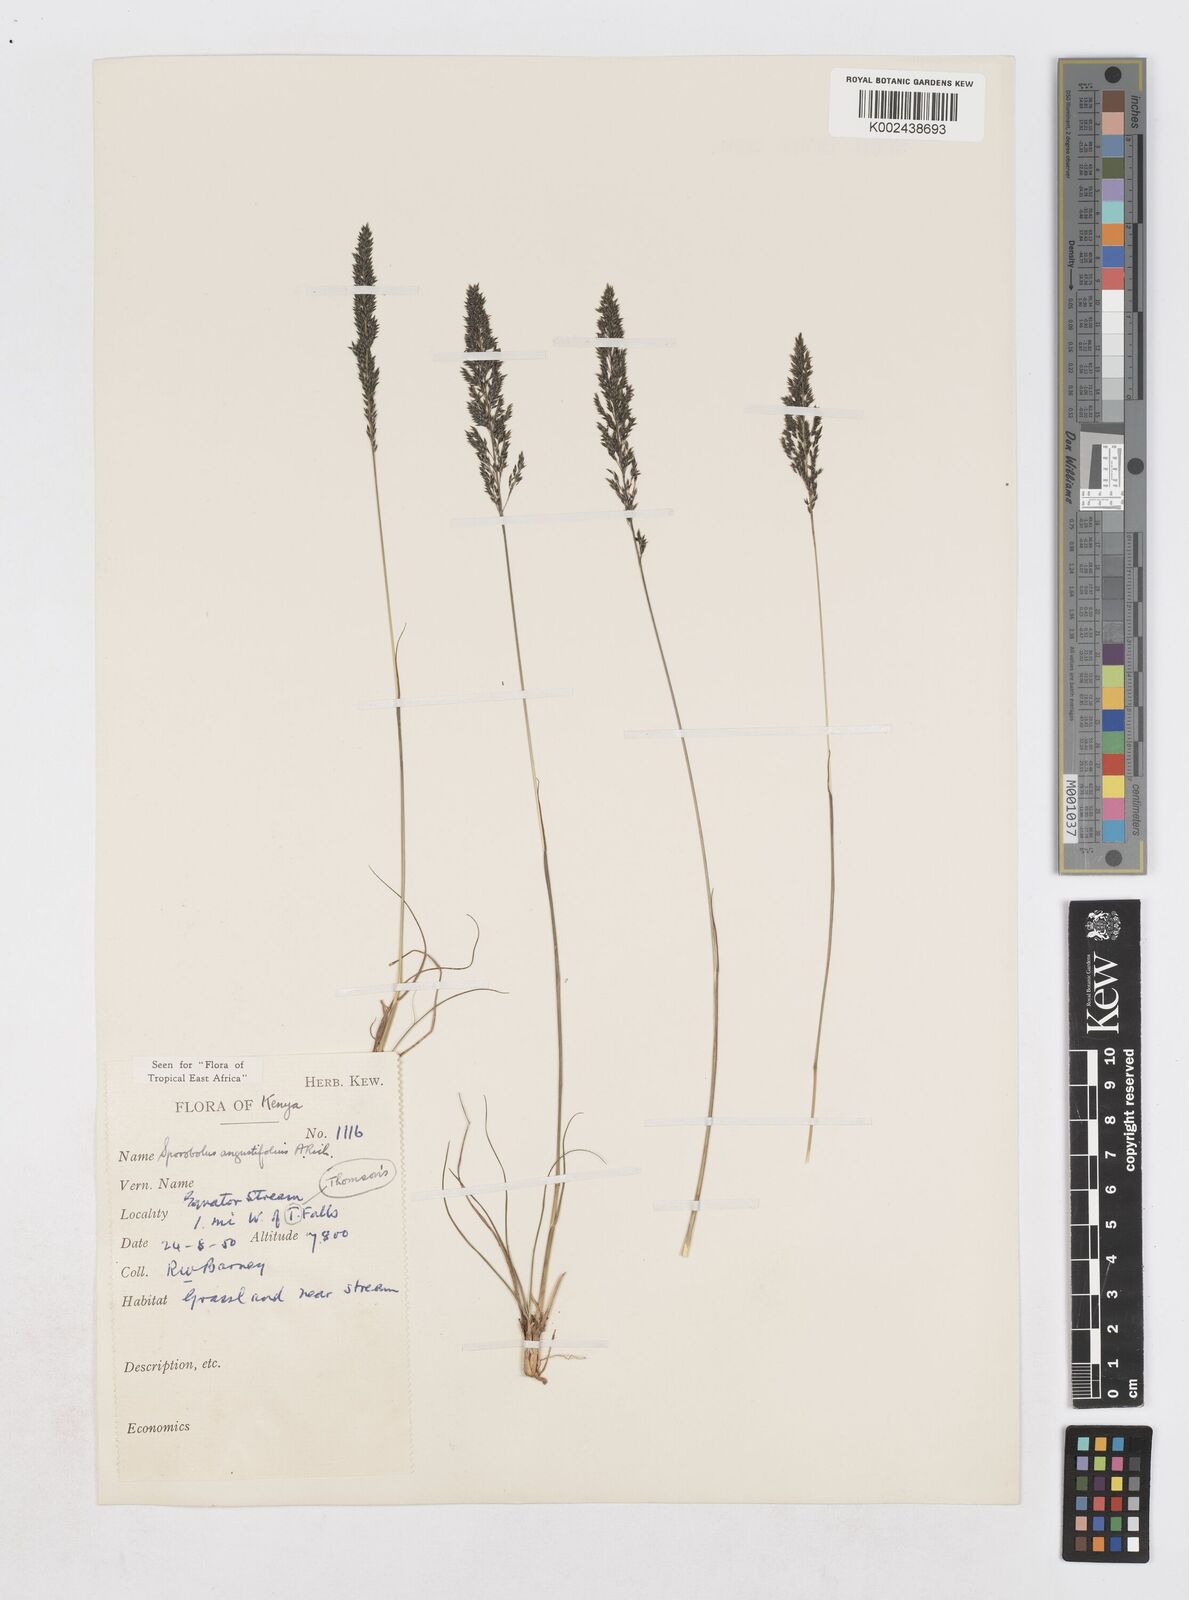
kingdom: Plantae
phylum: Tracheophyta
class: Liliopsida
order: Poales
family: Poaceae
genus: Sporobolus
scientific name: Sporobolus angustifolius
